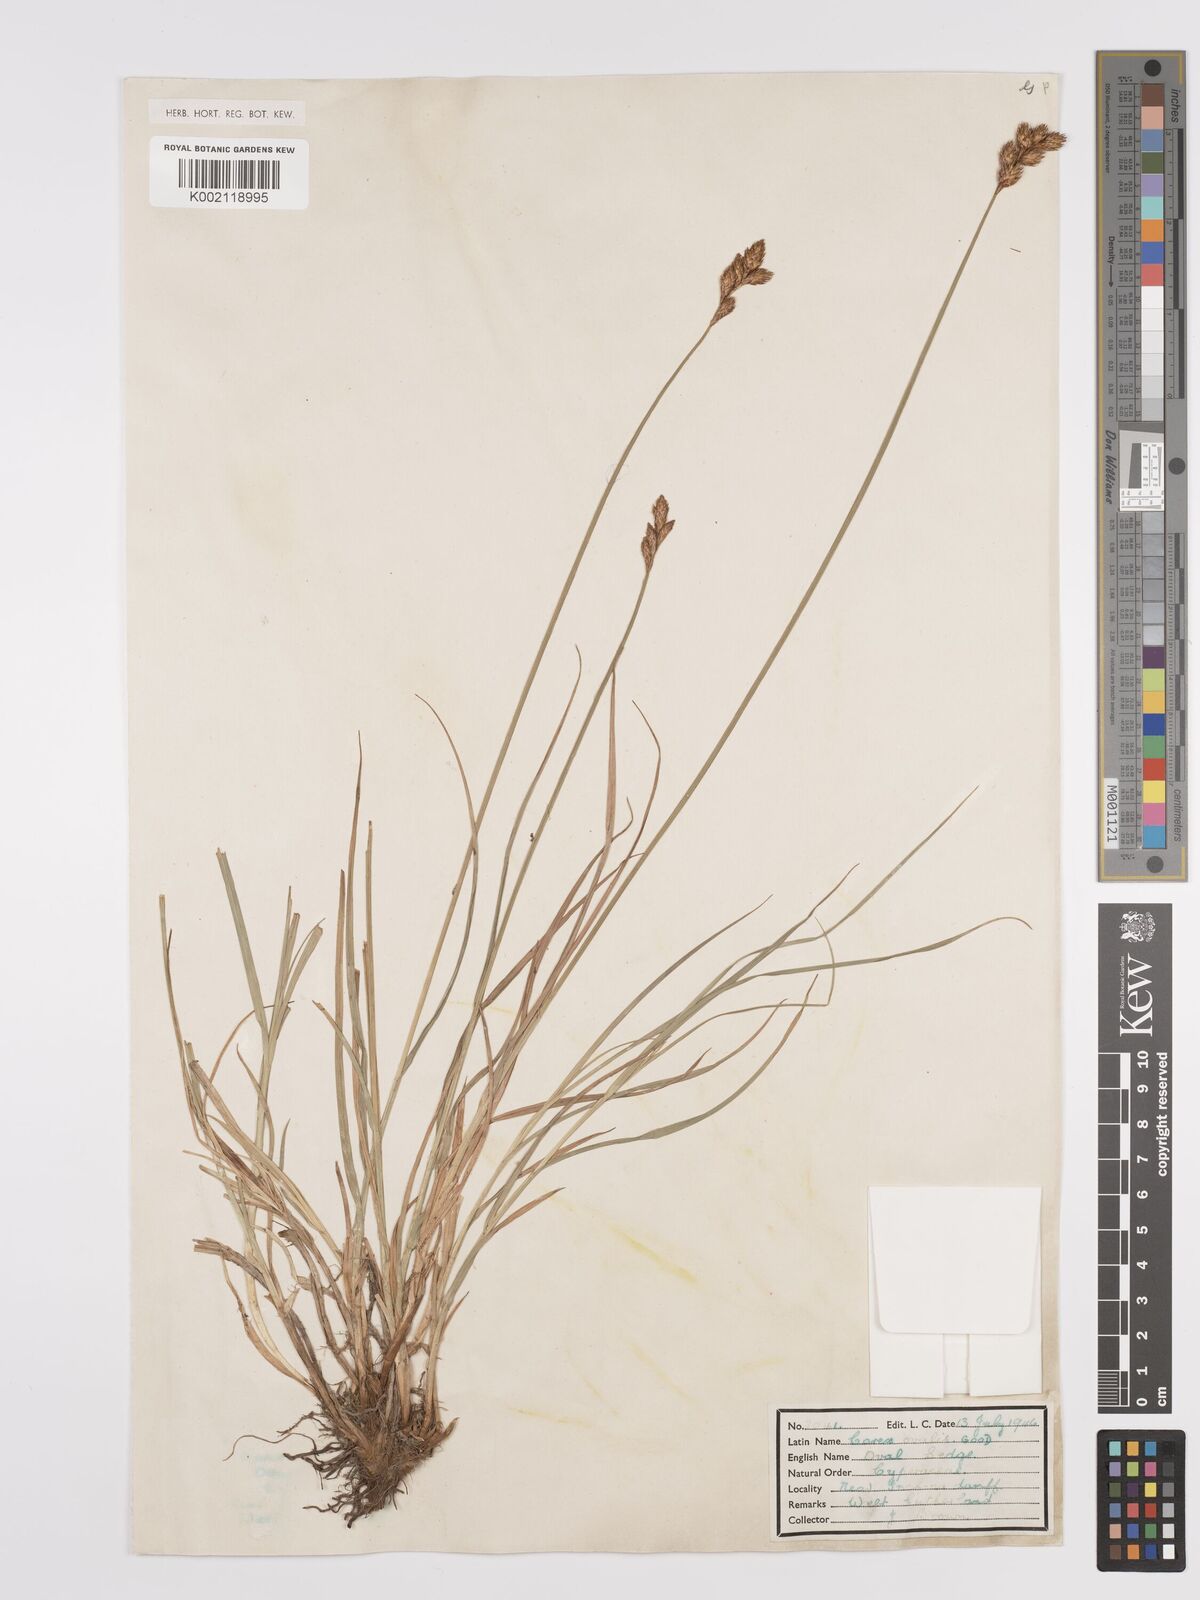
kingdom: Plantae
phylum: Tracheophyta
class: Liliopsida
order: Poales
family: Cyperaceae
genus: Carex
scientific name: Carex leporina
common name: Oval sedge
